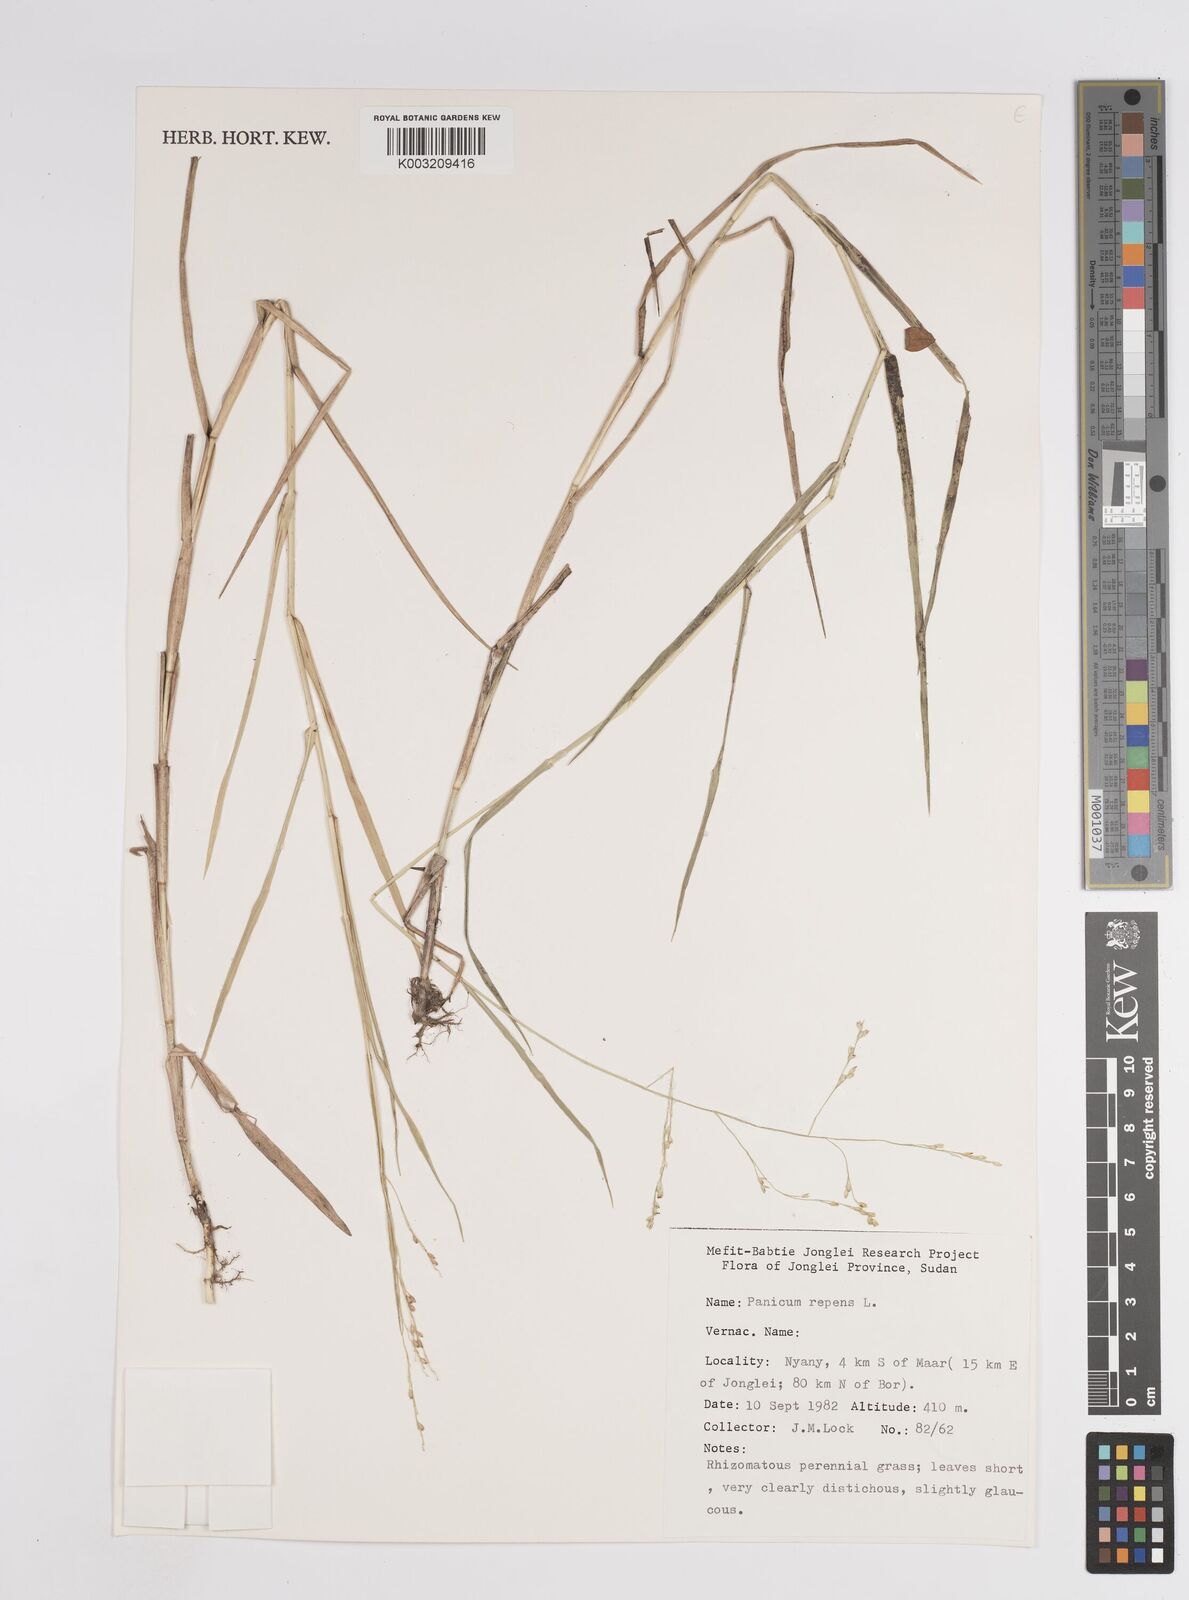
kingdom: Plantae
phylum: Tracheophyta
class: Liliopsida
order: Poales
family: Poaceae
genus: Panicum
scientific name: Panicum repens
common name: Torpedo grass
